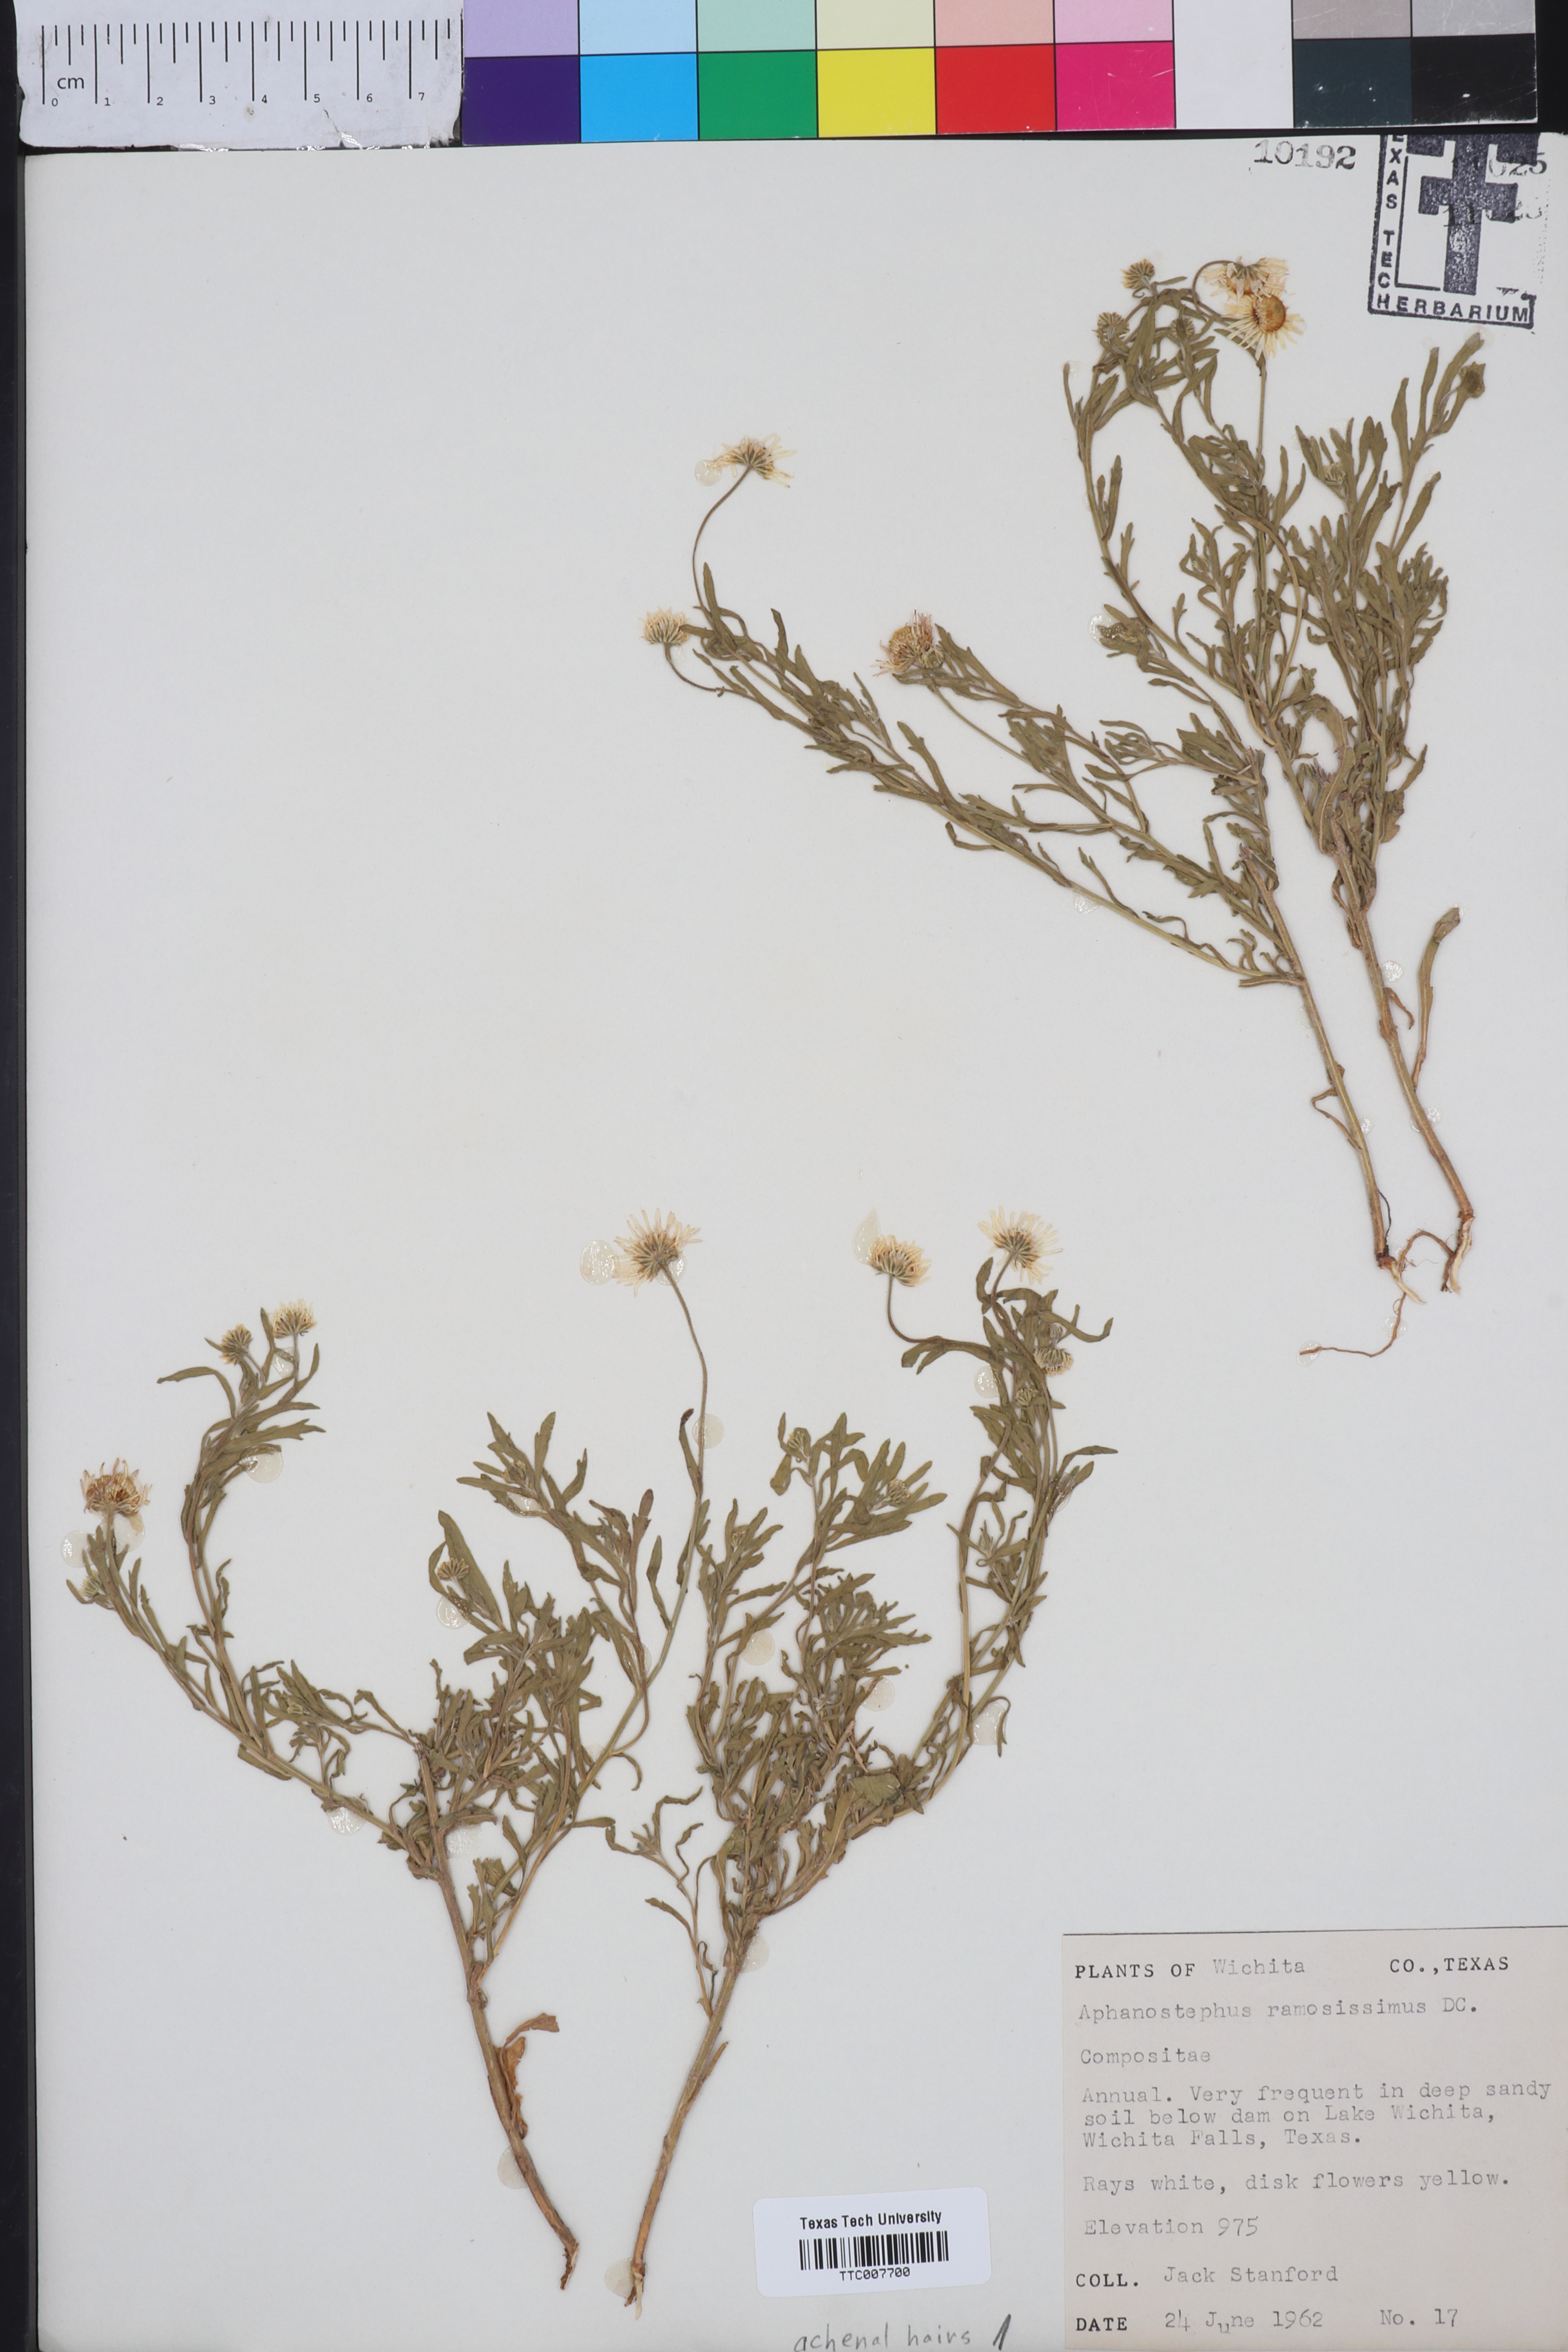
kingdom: Plantae
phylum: Tracheophyta
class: Magnoliopsida
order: Asterales
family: Asteraceae
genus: Aphanostephus
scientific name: Aphanostephus ramosissimus
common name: Plains lazy daisy
